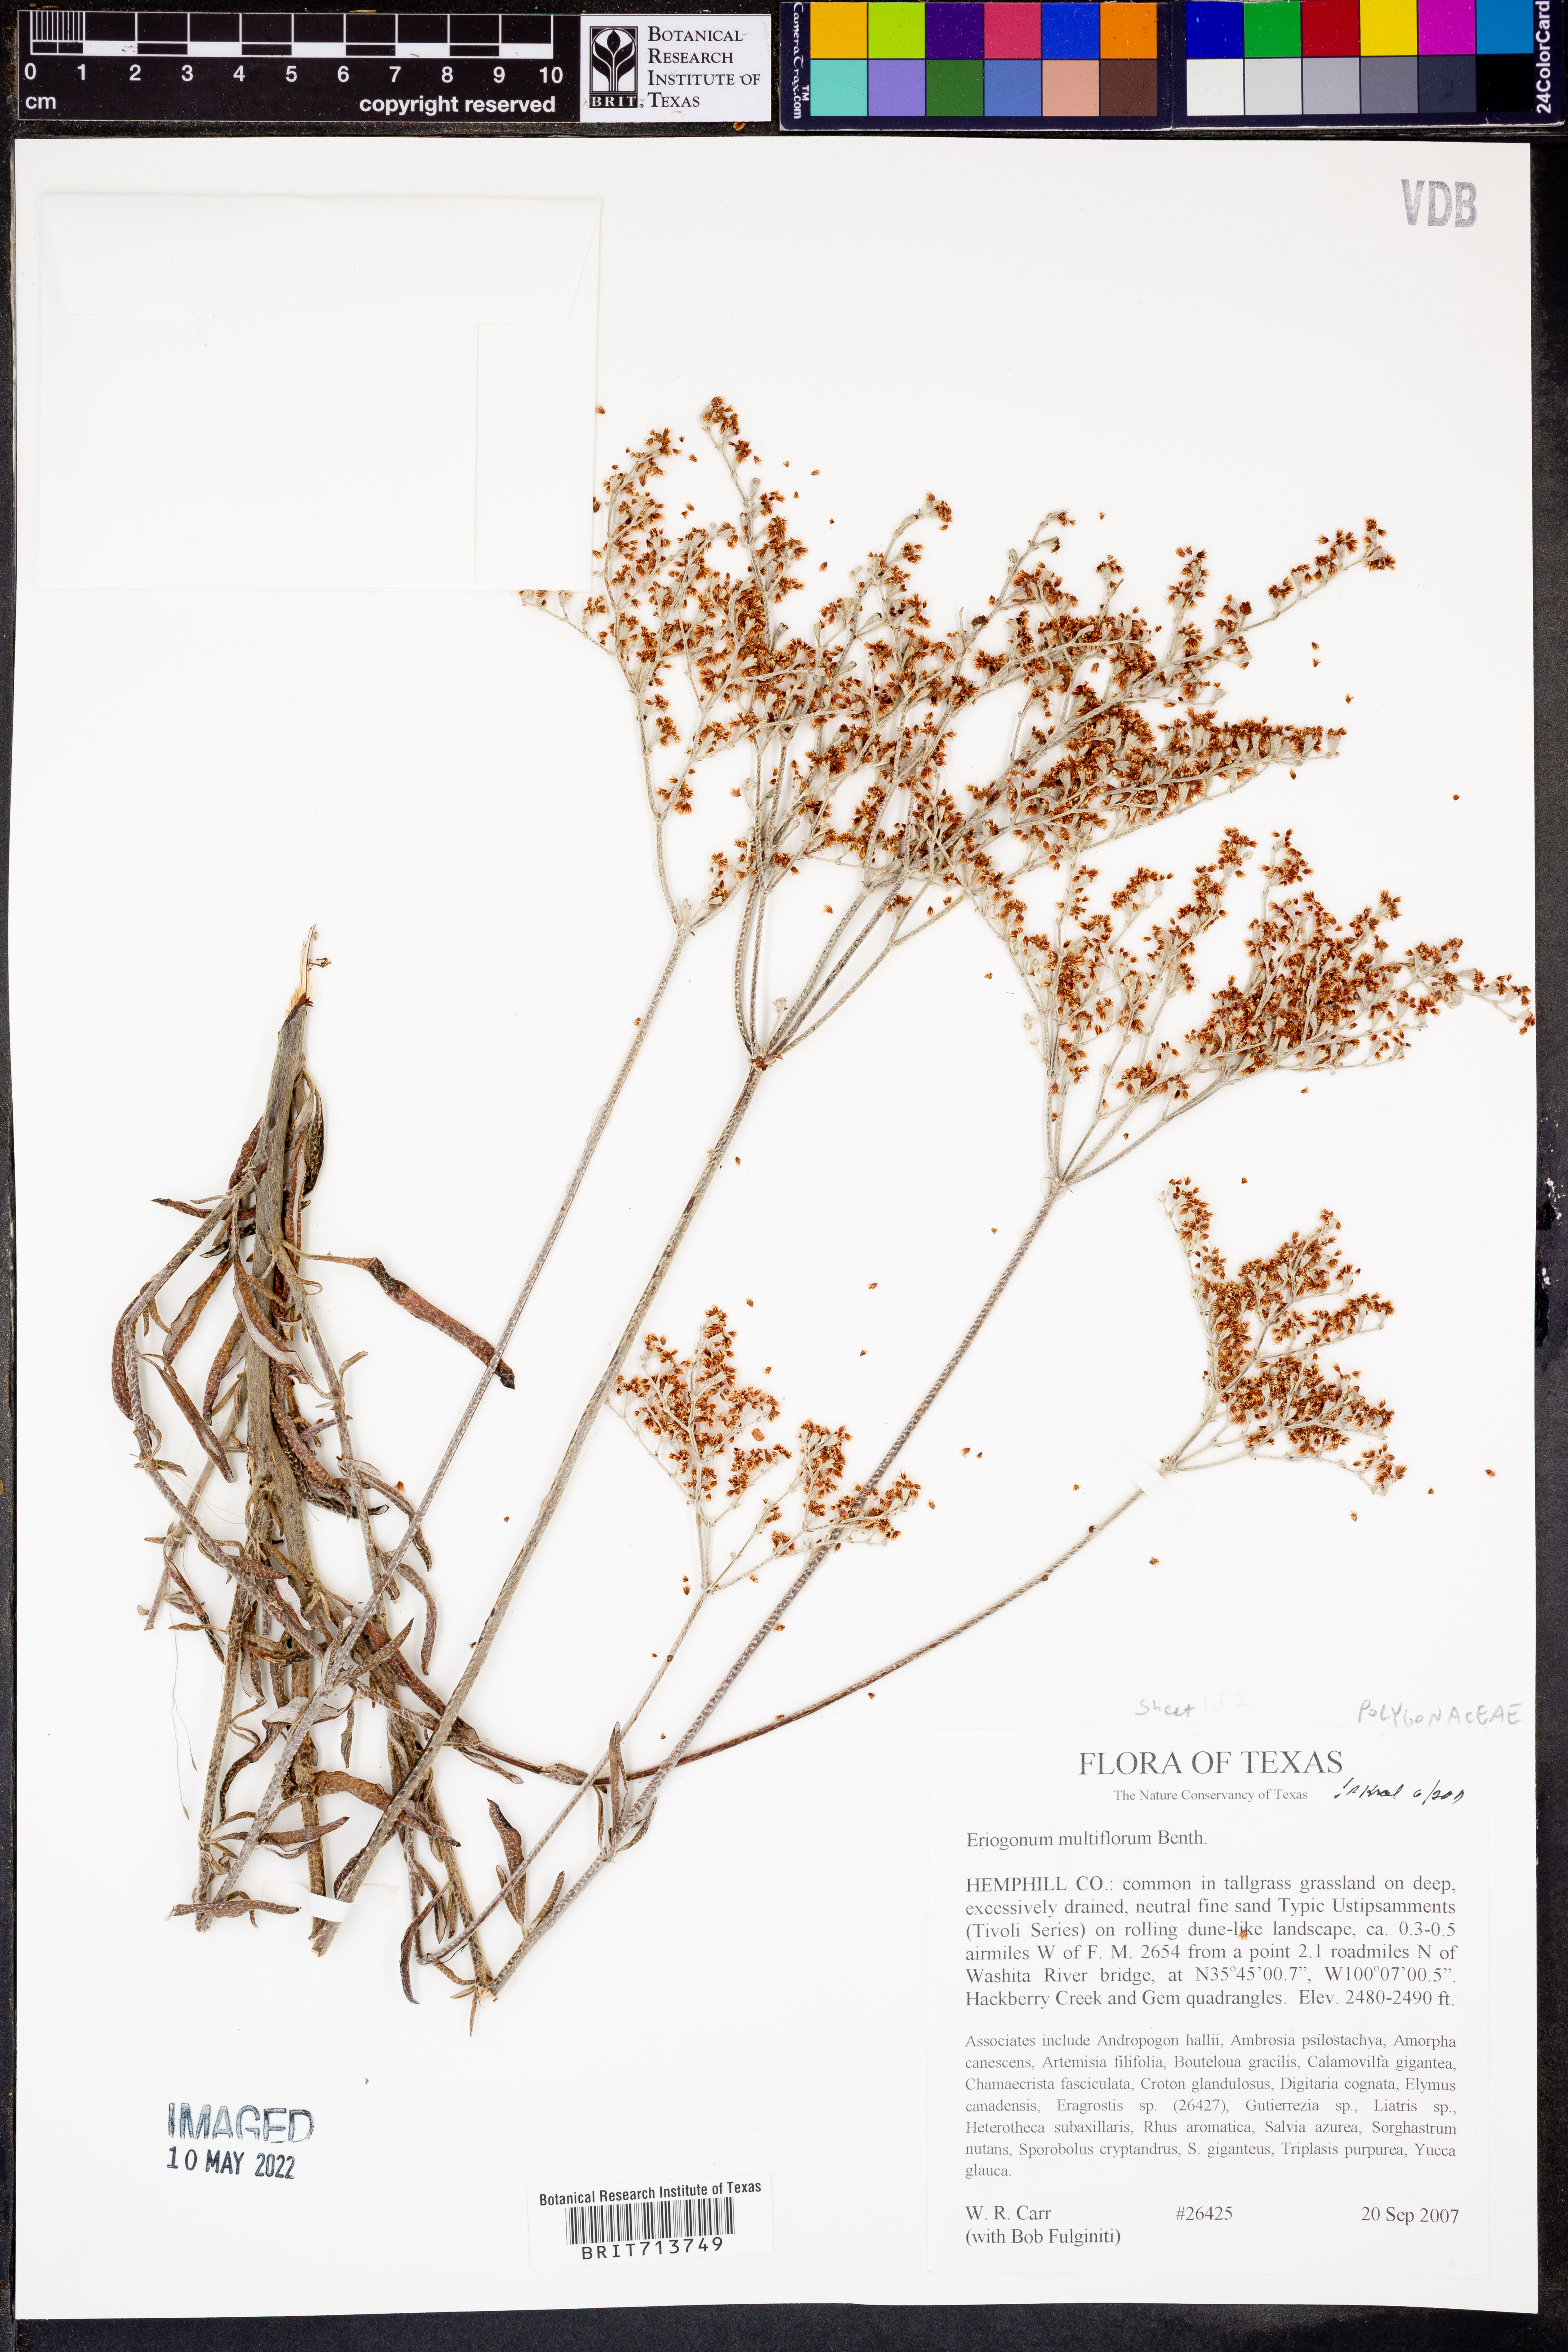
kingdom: Plantae
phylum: Tracheophyta
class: Magnoliopsida
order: Caryophyllales
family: Polygonaceae
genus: Eriogonum
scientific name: Eriogonum multiflorum
